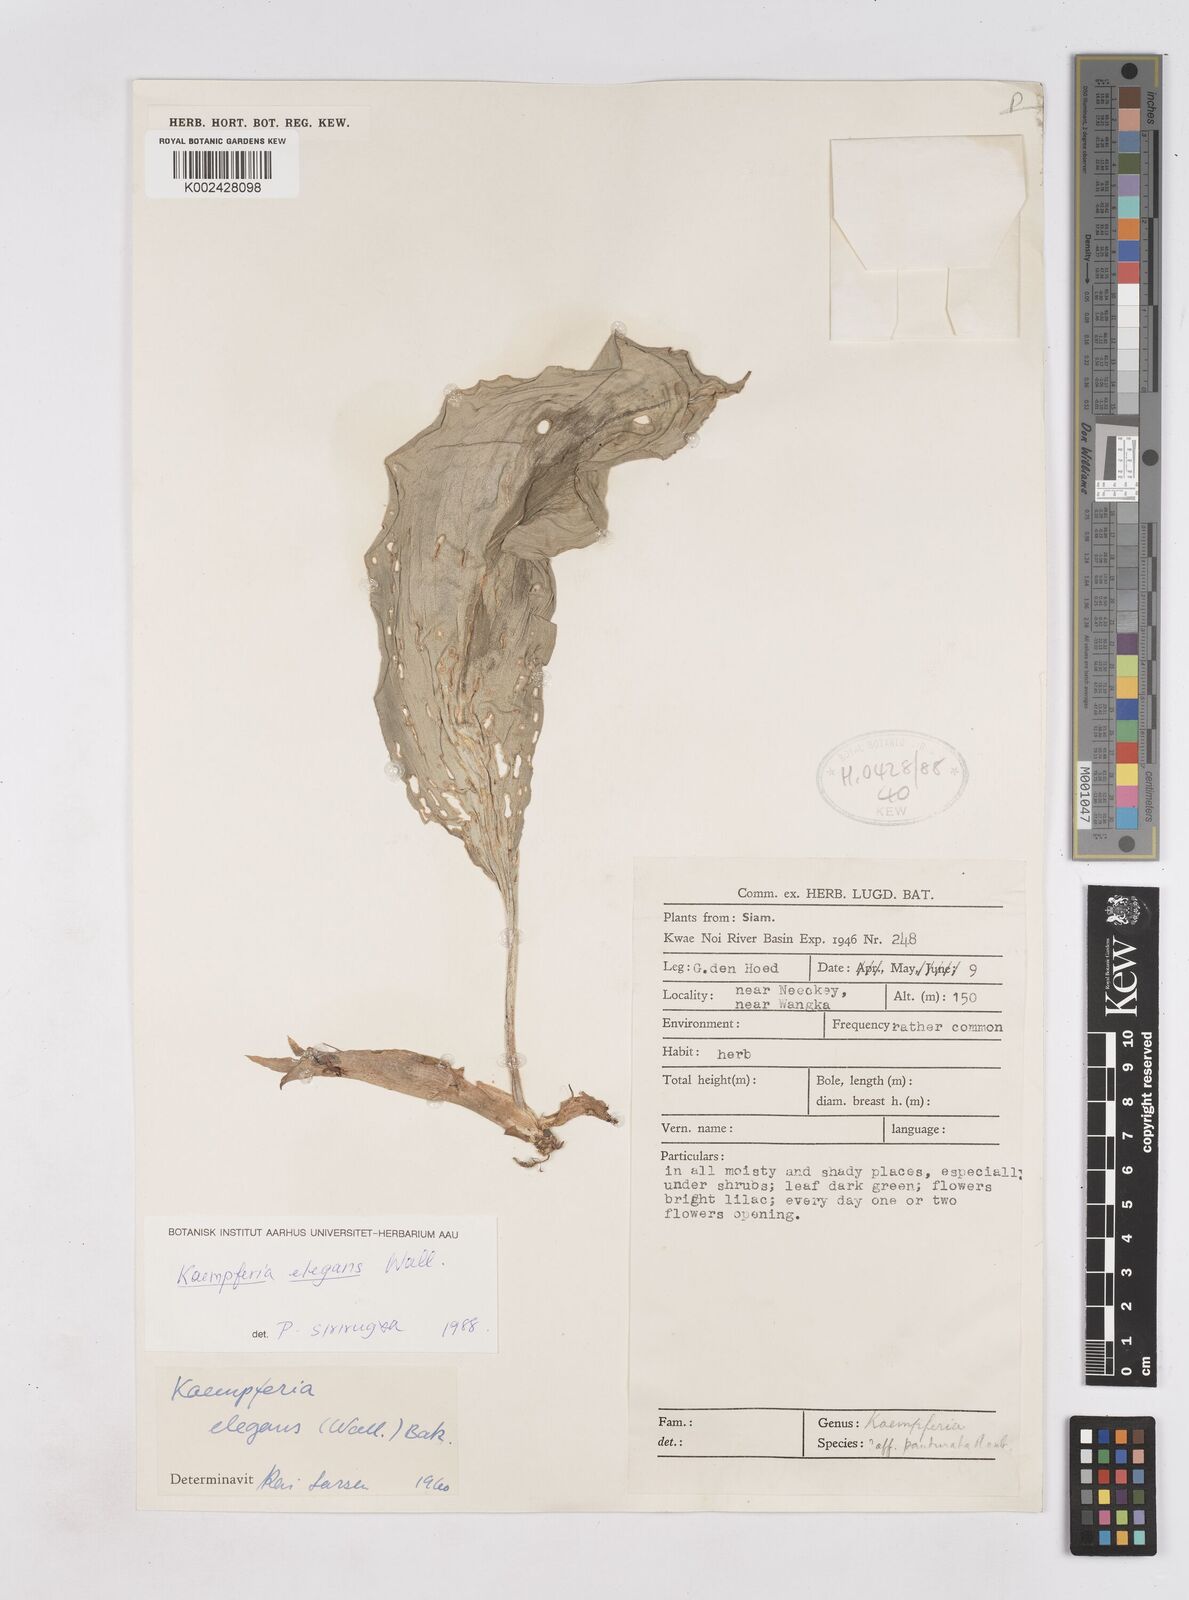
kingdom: Plantae
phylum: Tracheophyta
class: Liliopsida
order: Zingiberales
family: Zingiberaceae
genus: Kaempferia
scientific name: Kaempferia elegans
